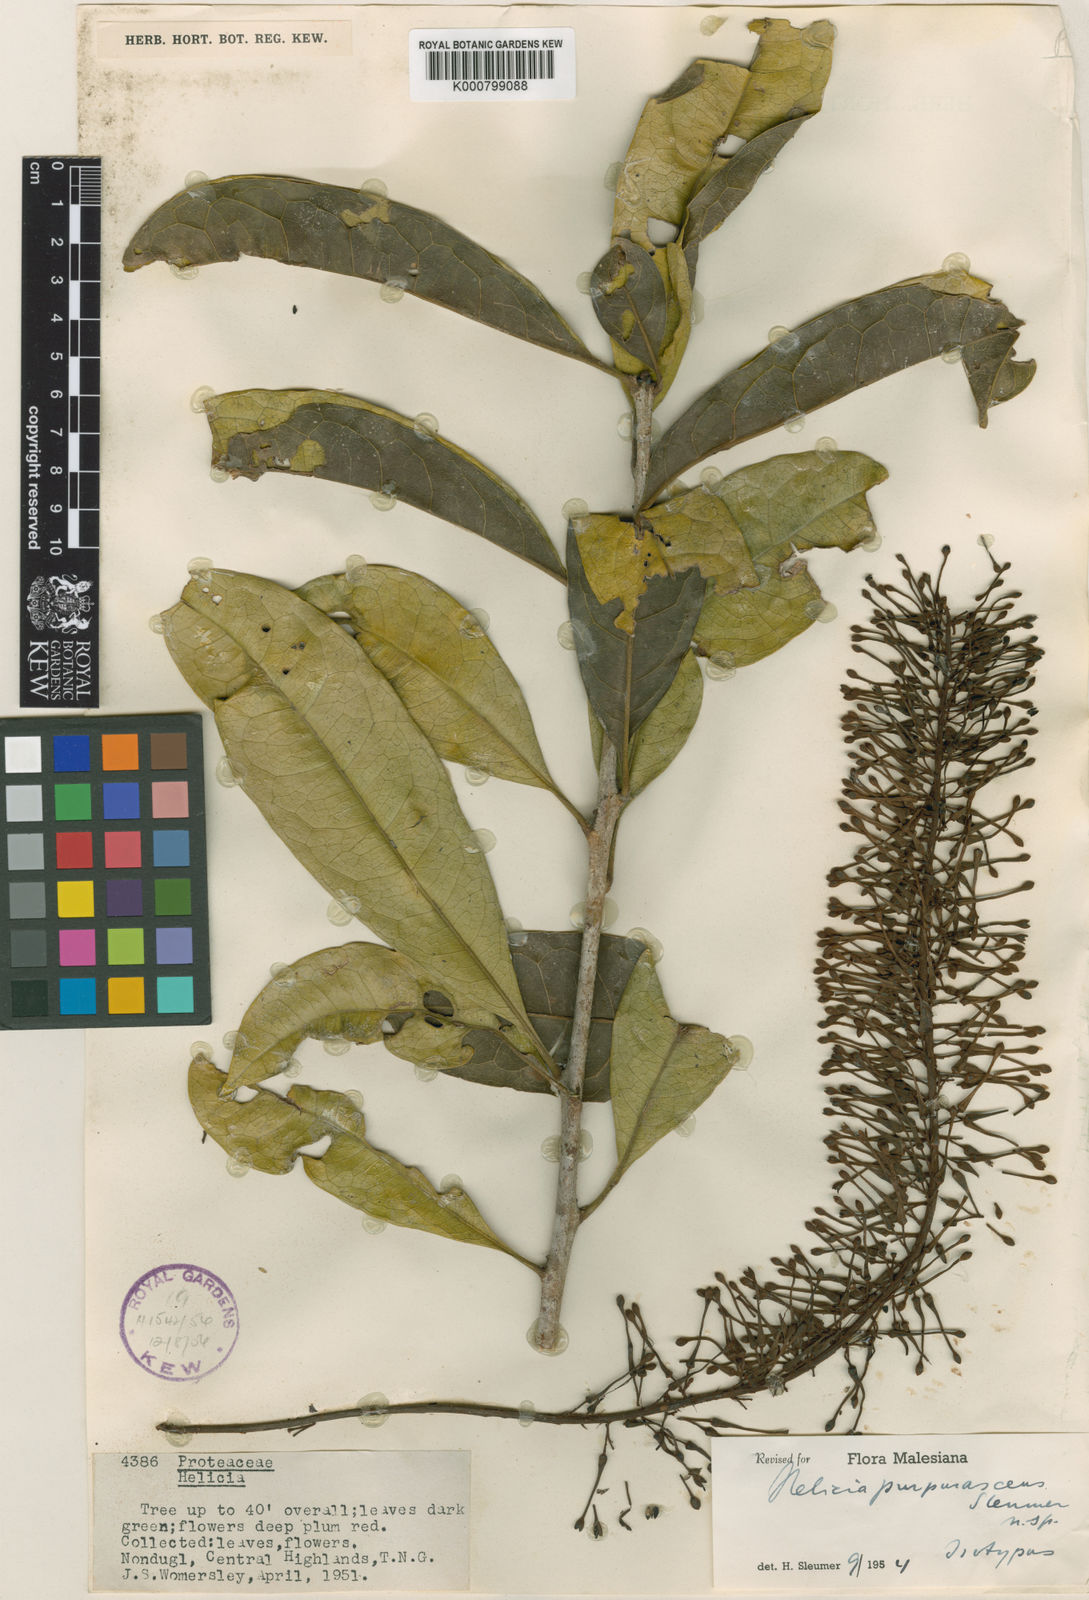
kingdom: Plantae
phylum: Tracheophyta
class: Magnoliopsida
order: Proteales
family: Proteaceae
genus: Helicia
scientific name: Helicia oreadum
